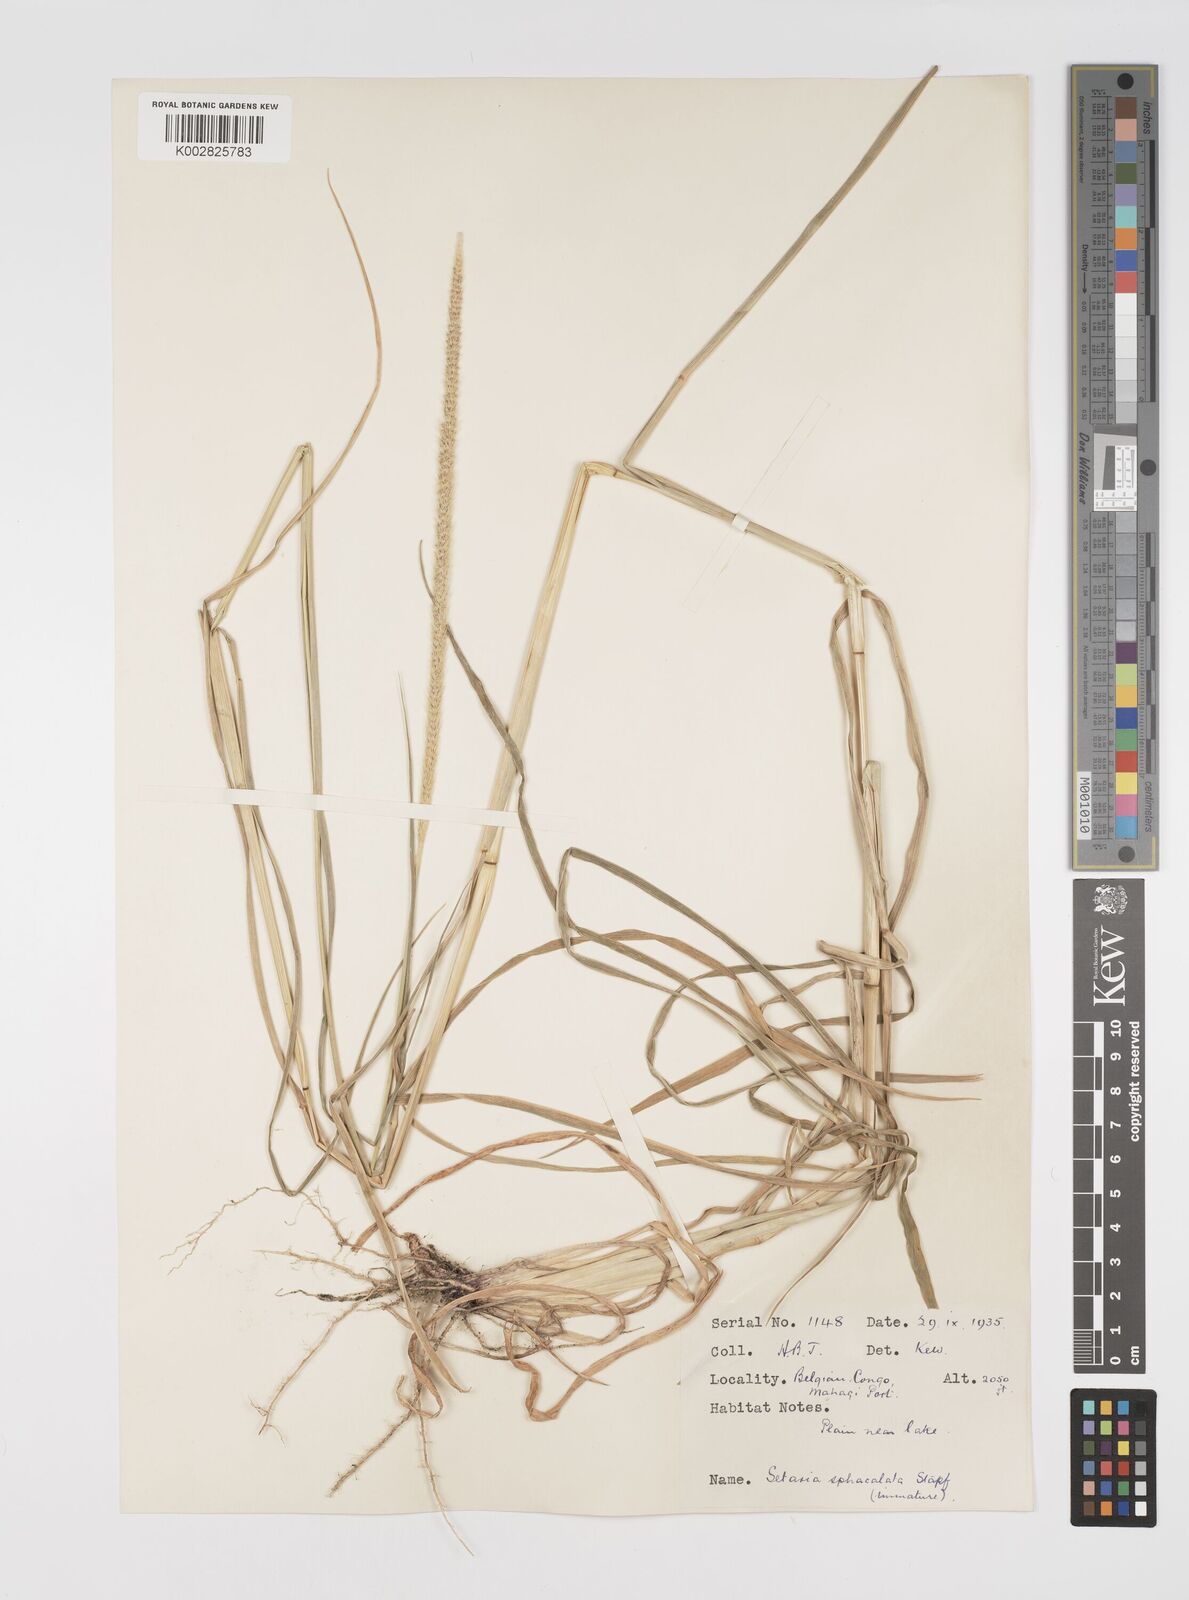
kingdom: Plantae
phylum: Tracheophyta
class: Liliopsida
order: Poales
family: Poaceae
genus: Setaria
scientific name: Setaria sphacelata
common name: African bristlegrass
